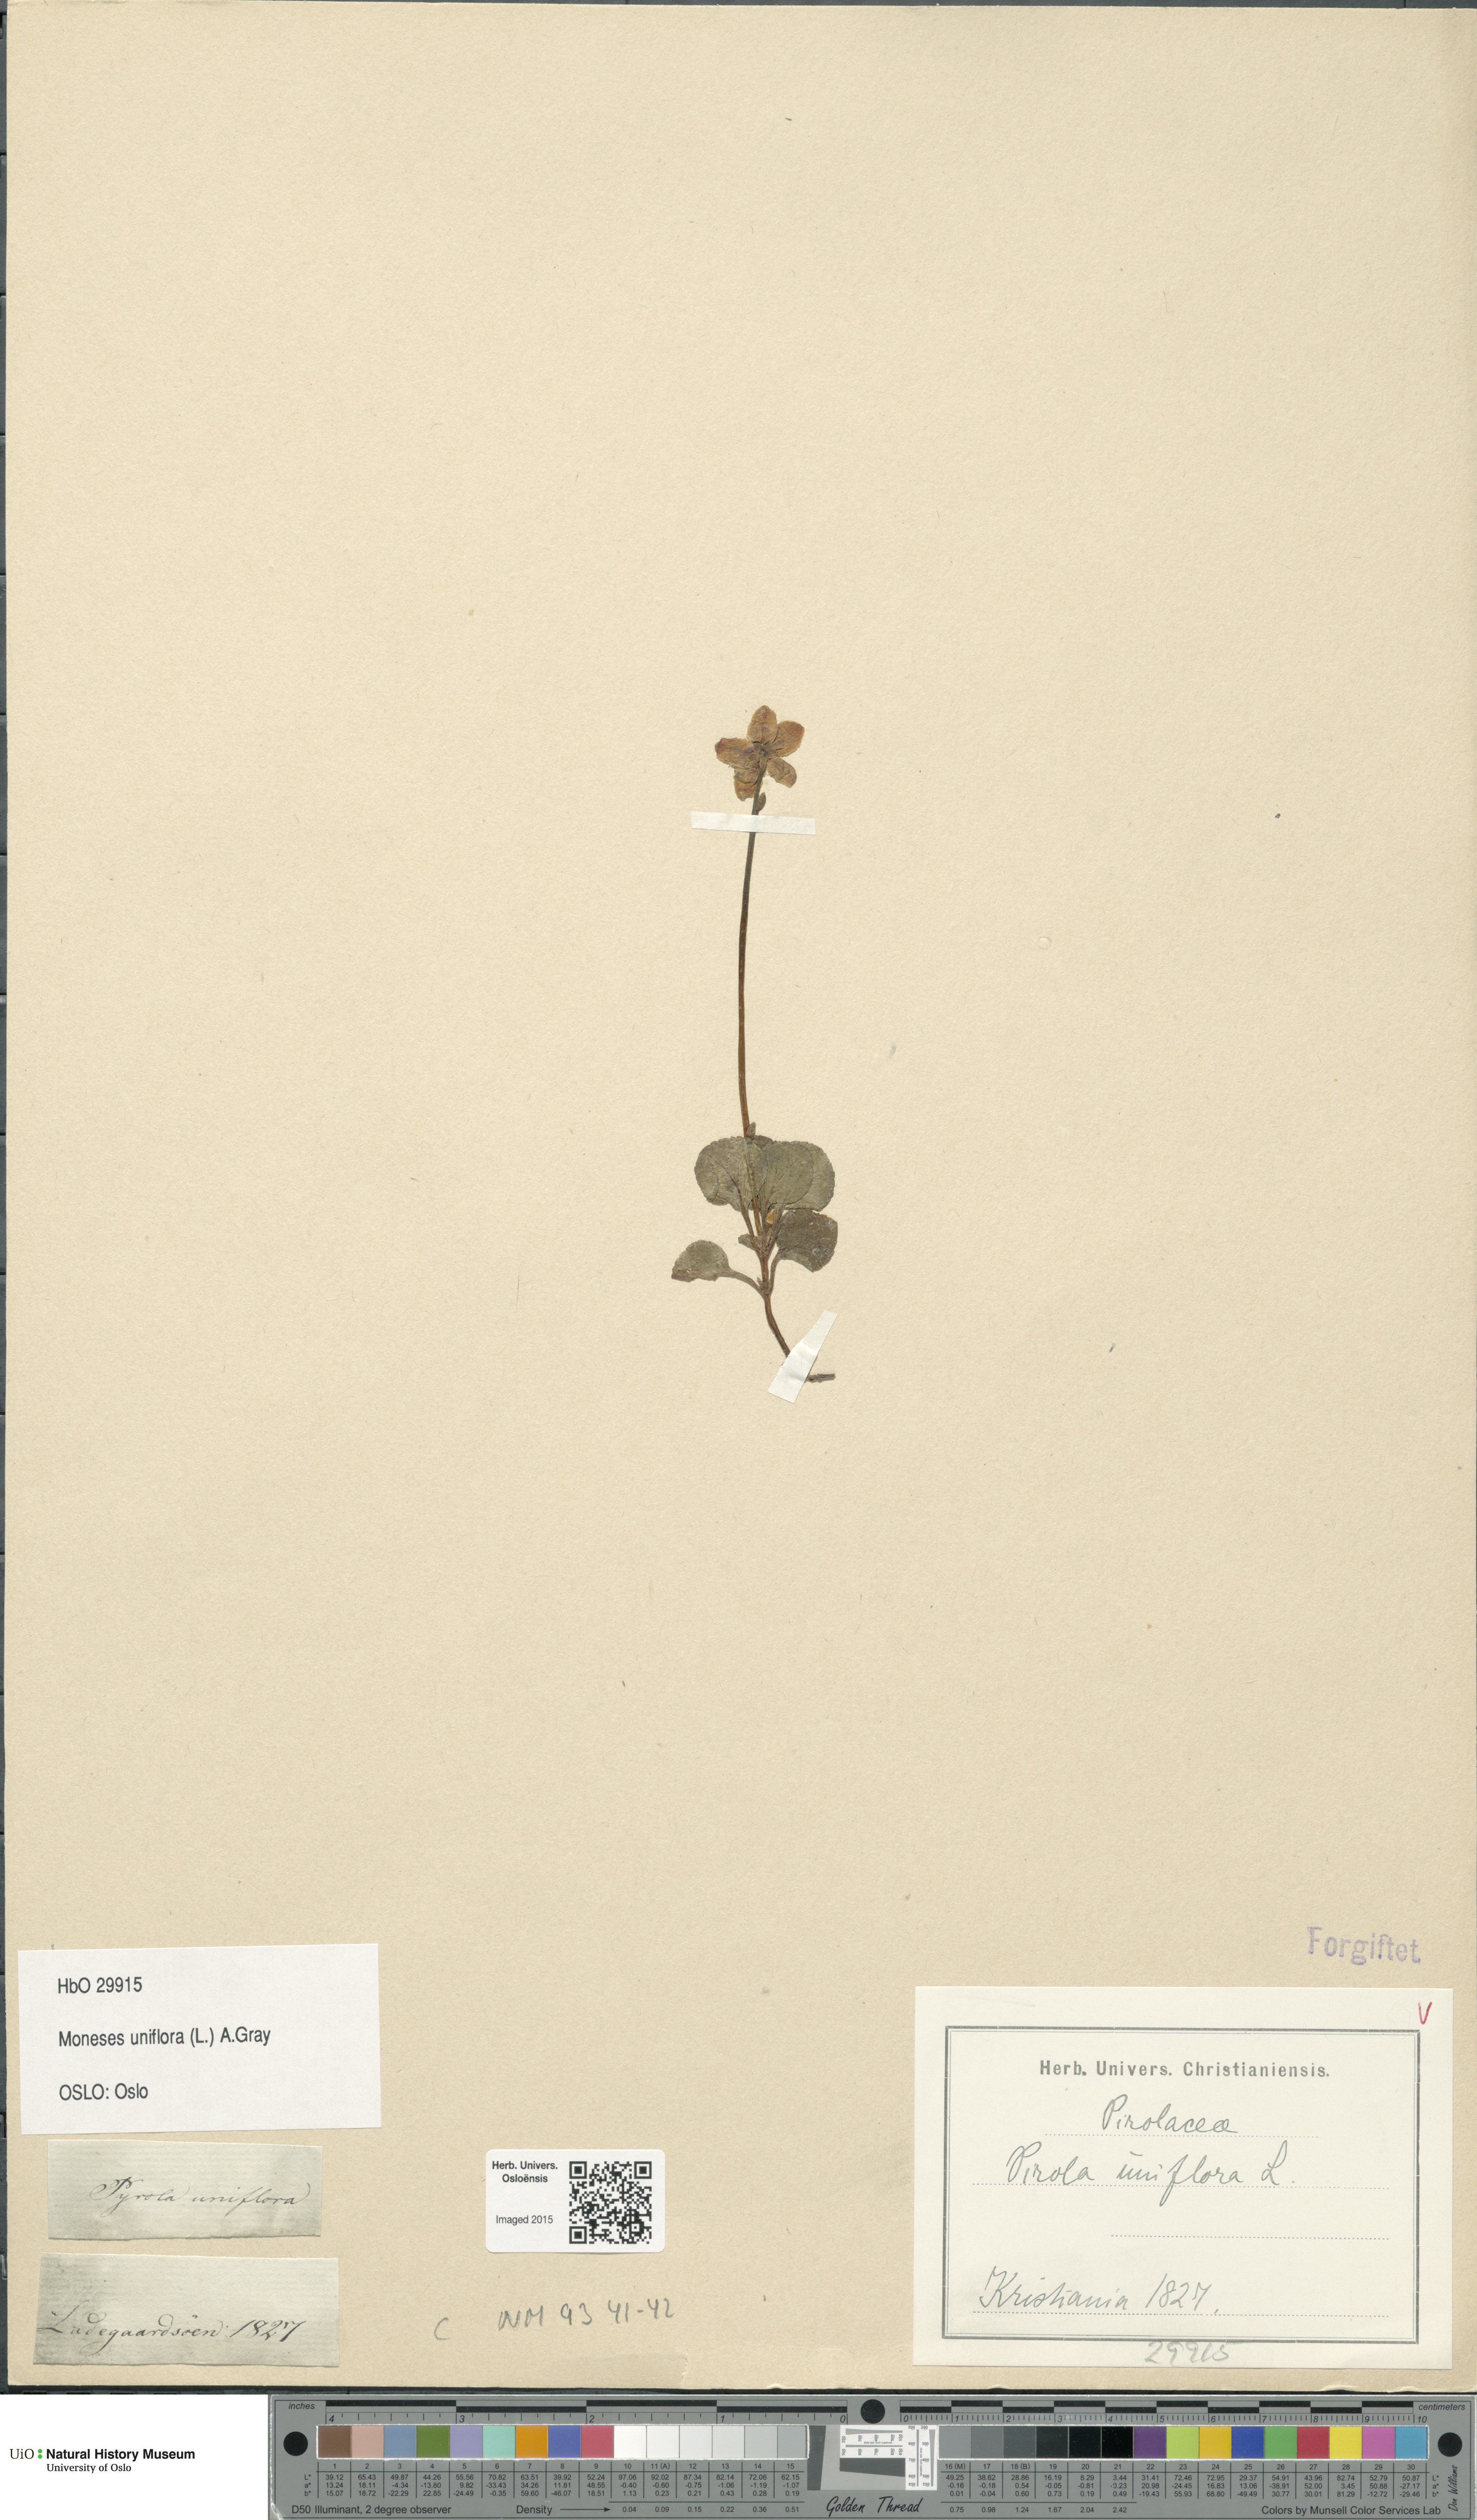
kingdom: Plantae
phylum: Tracheophyta
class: Magnoliopsida
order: Ericales
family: Ericaceae
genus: Moneses
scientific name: Moneses uniflora
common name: One-flowered wintergreen
